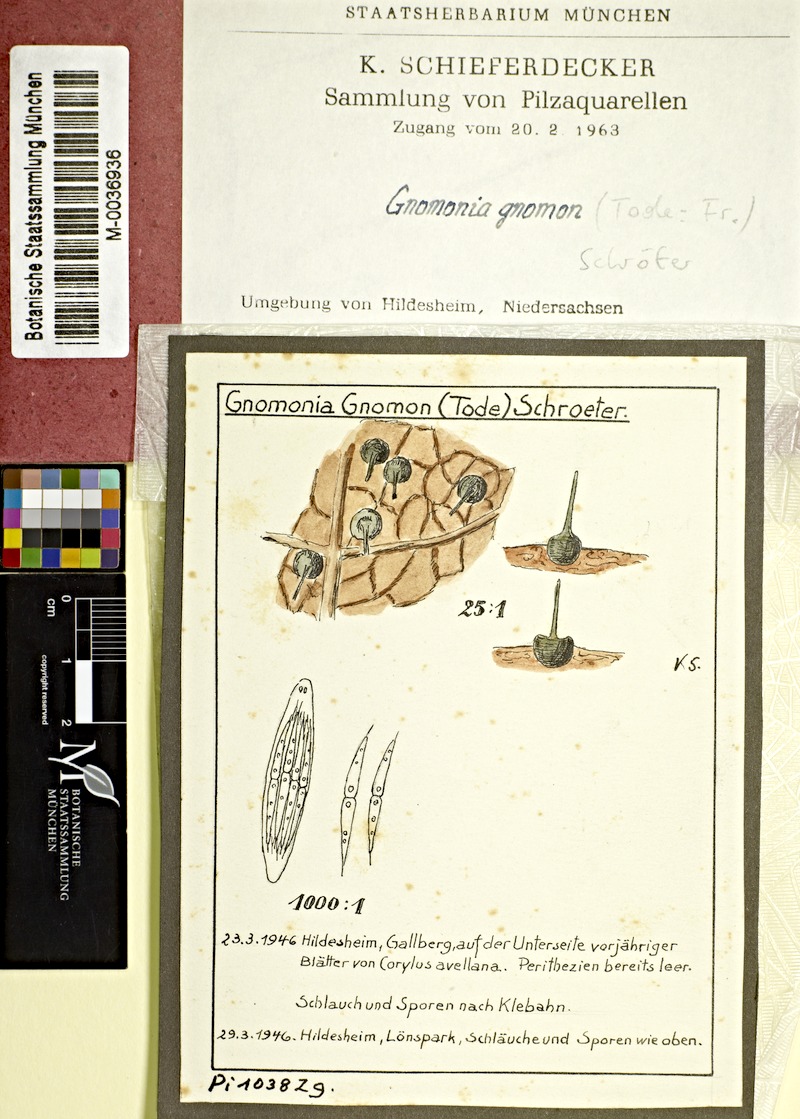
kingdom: Fungi
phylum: Ascomycota
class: Sordariomycetes
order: Diaporthales
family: Gnomoniaceae
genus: Gnomonia
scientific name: Gnomonia gnomon
